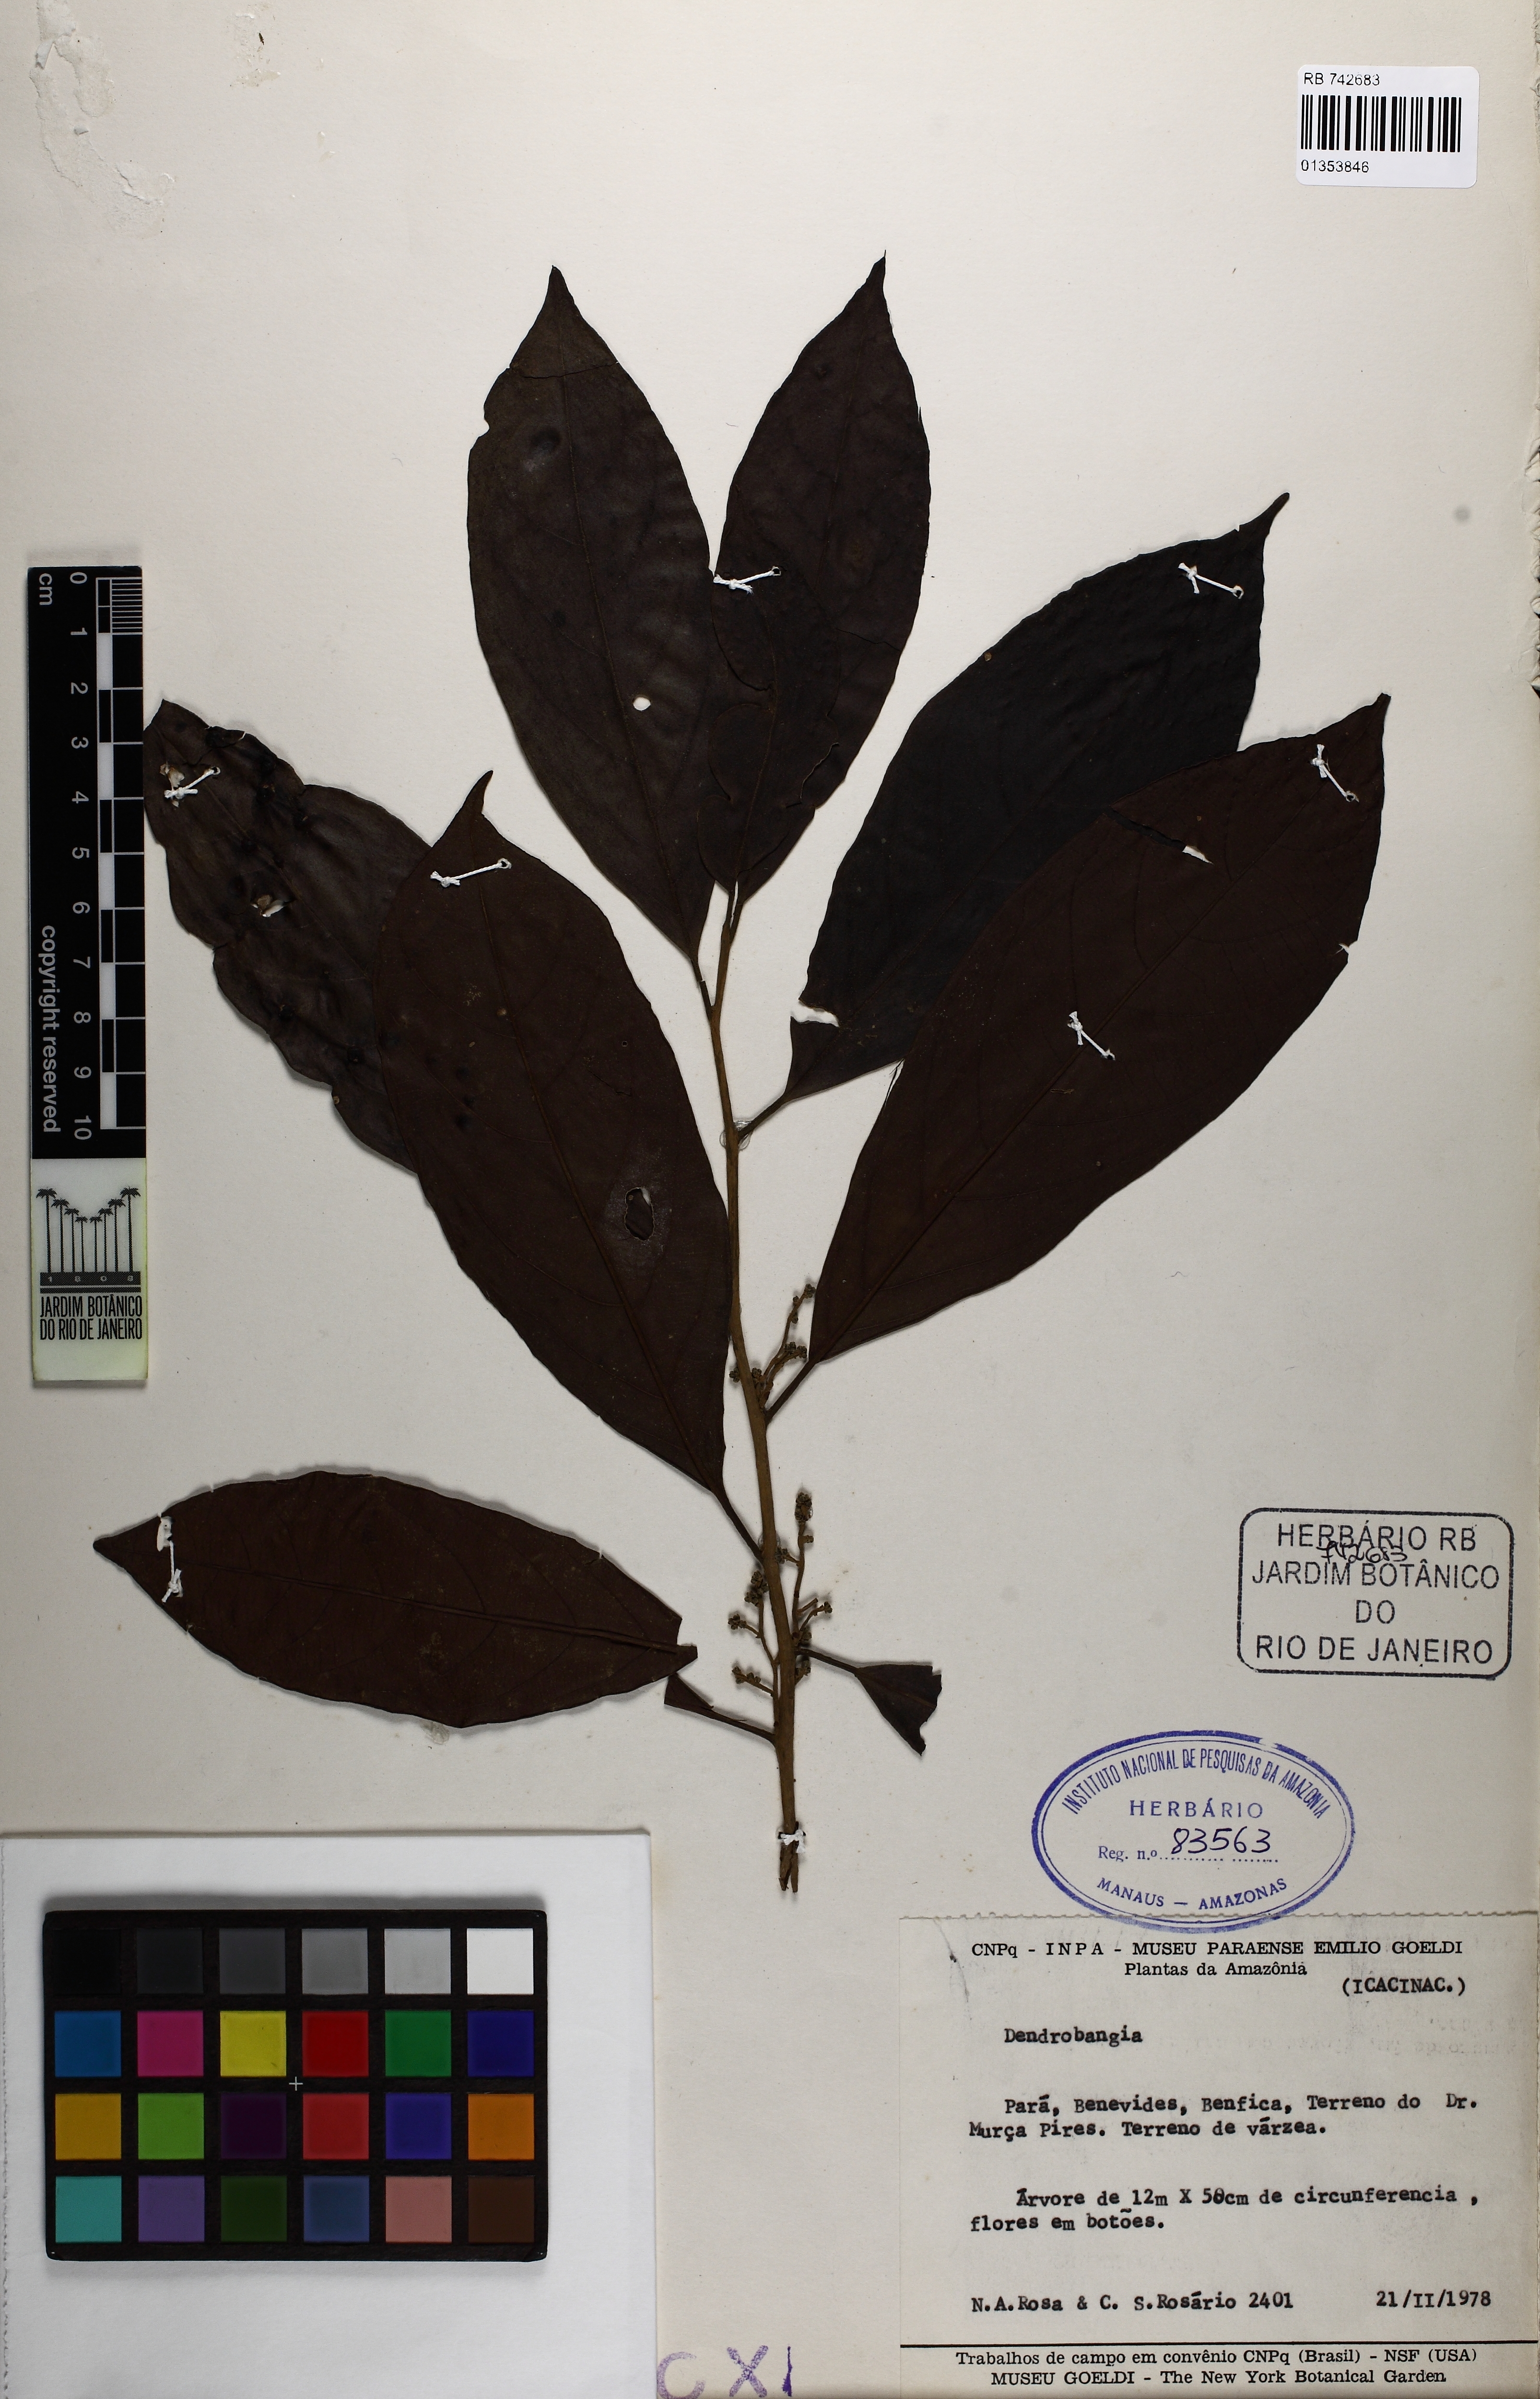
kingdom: Plantae
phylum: Tracheophyta
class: Magnoliopsida
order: Metteniusales
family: Metteniusaceae
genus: Dendrobangia
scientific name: Dendrobangia
